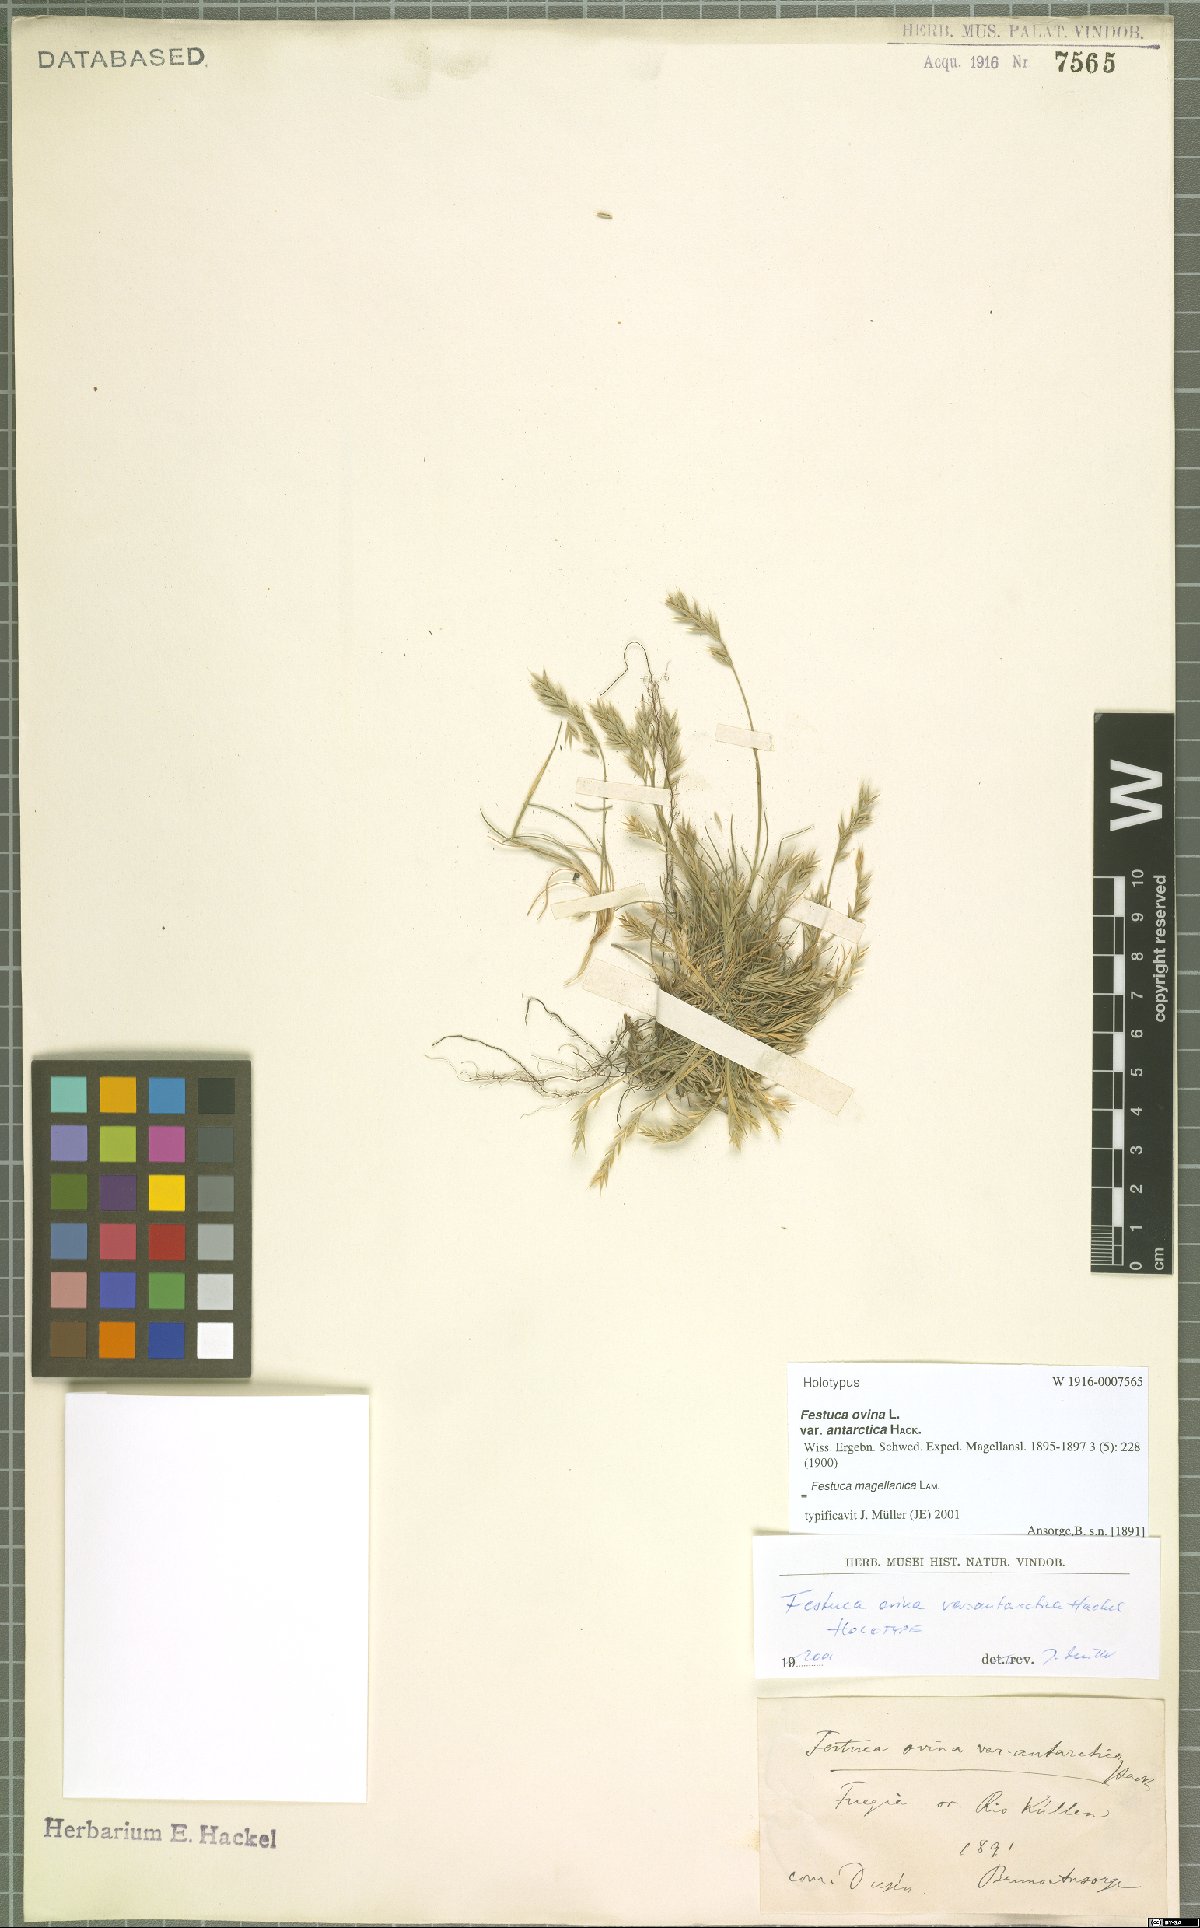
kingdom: Plantae
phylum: Tracheophyta
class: Liliopsida
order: Poales
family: Poaceae
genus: Festuca
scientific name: Festuca magellanica
